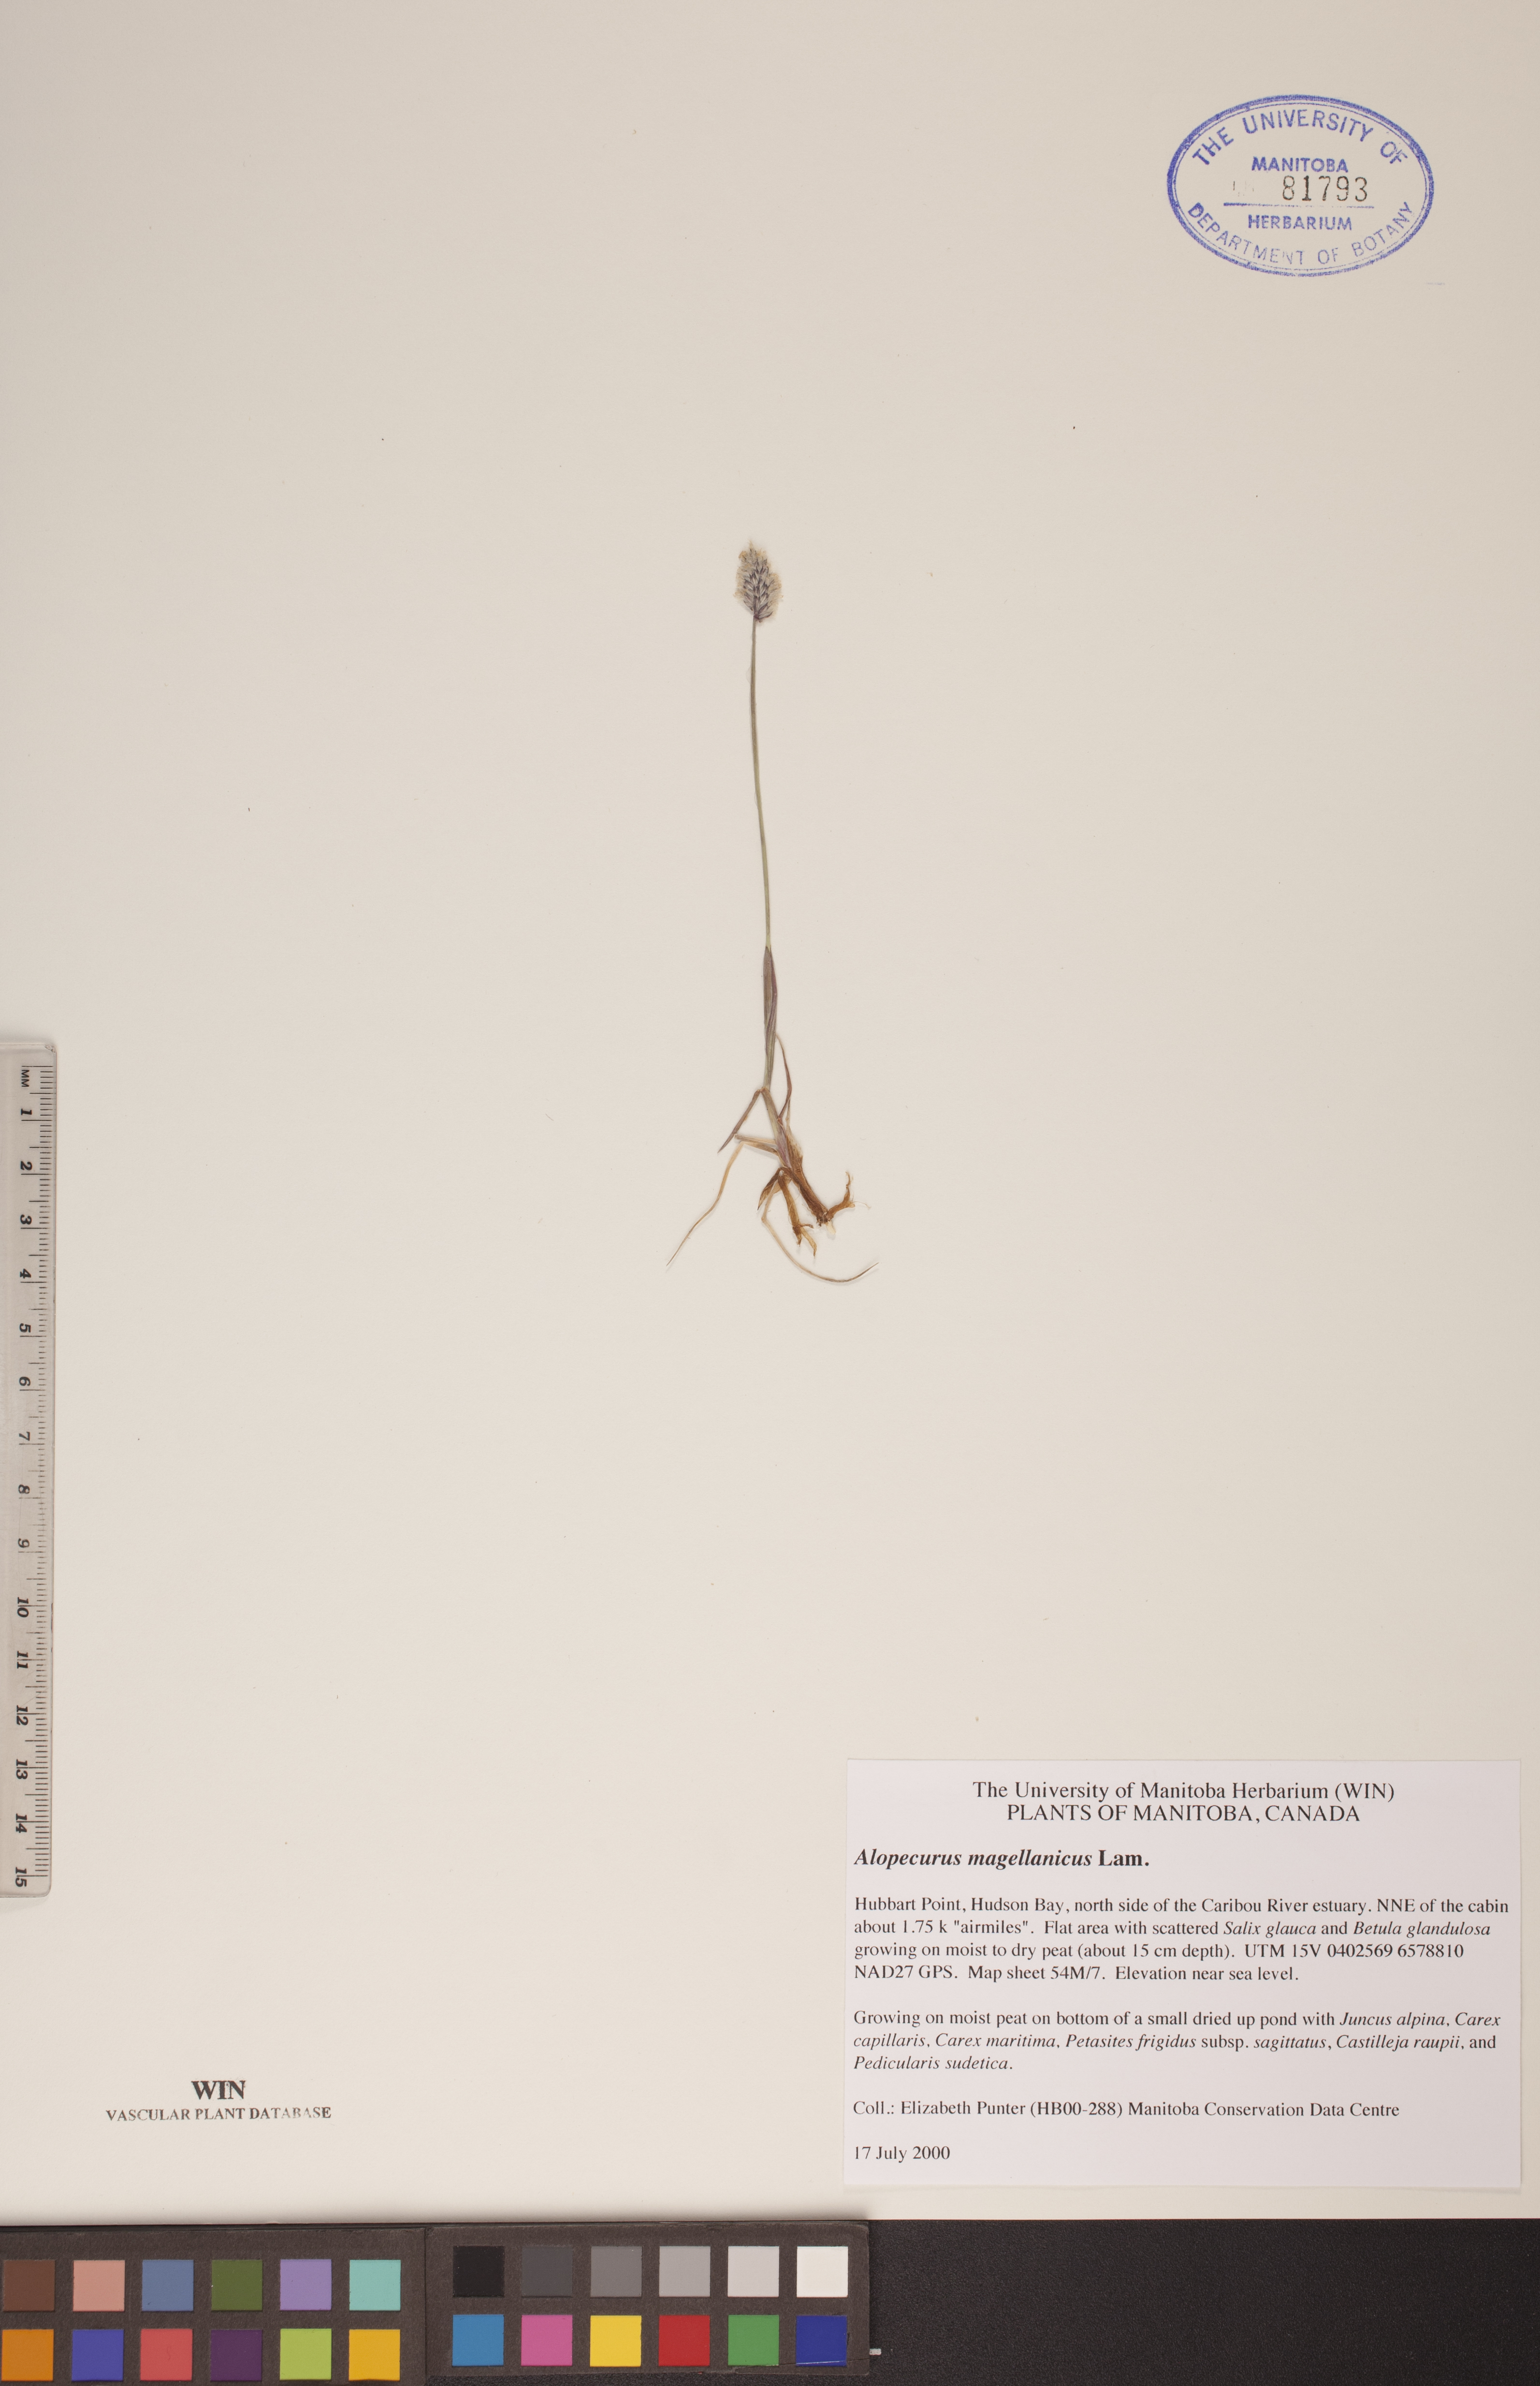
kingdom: Plantae
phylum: Tracheophyta
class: Liliopsida
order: Poales
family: Poaceae
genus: Alopecurus
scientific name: Alopecurus magellanicus
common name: Alpine foxtail
